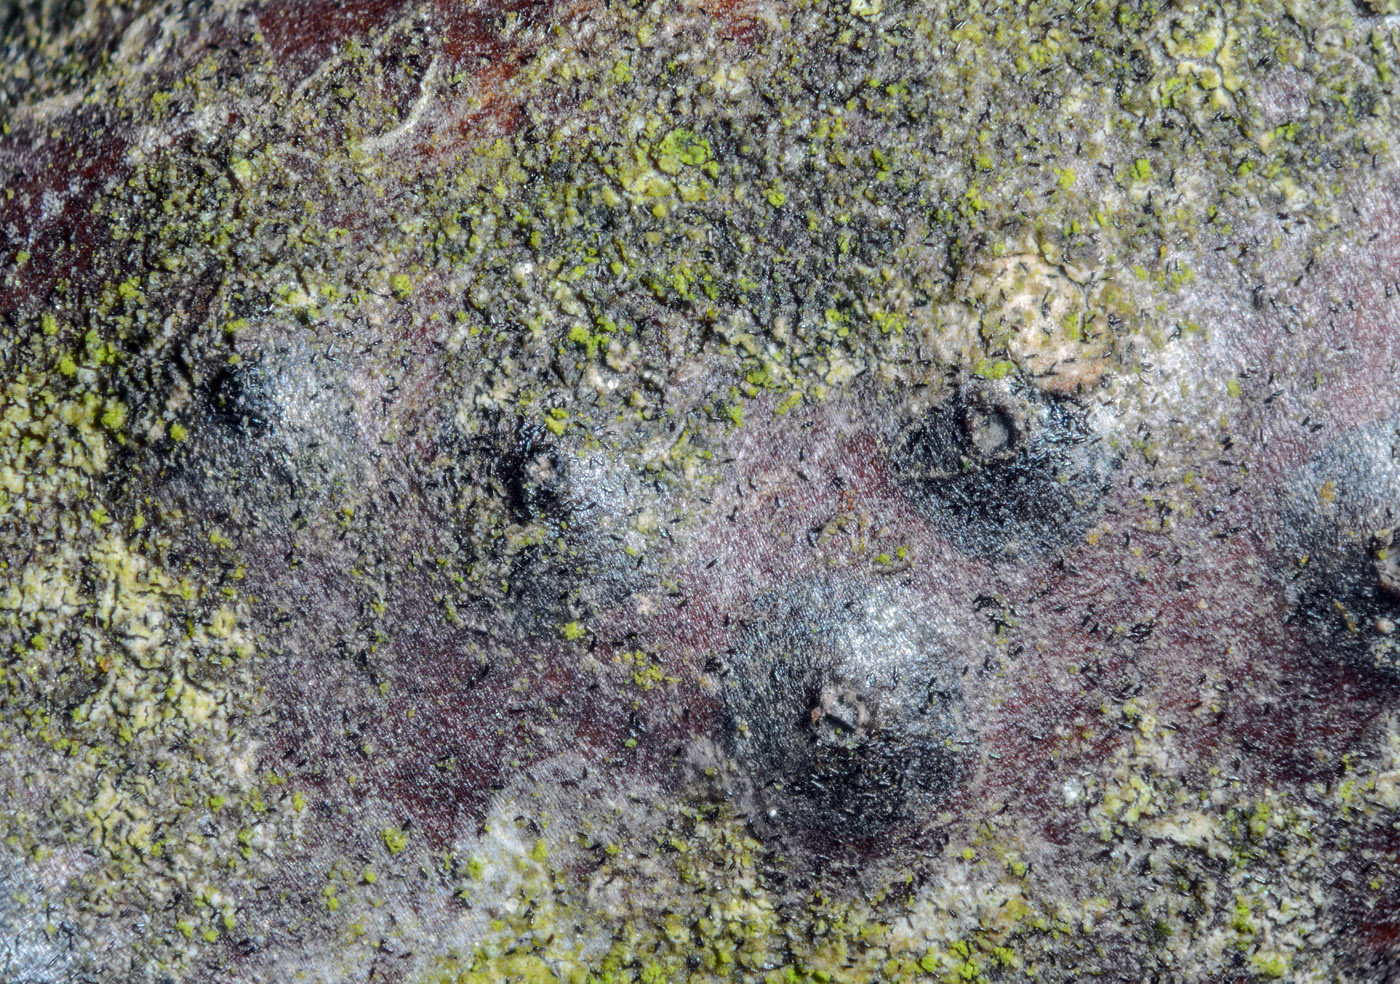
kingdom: Fungi
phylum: Ascomycota
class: Dothideomycetes
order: Pleosporales
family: Massariaceae
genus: Massaria
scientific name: Massaria inquinans
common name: ahorn-kulvulkan
